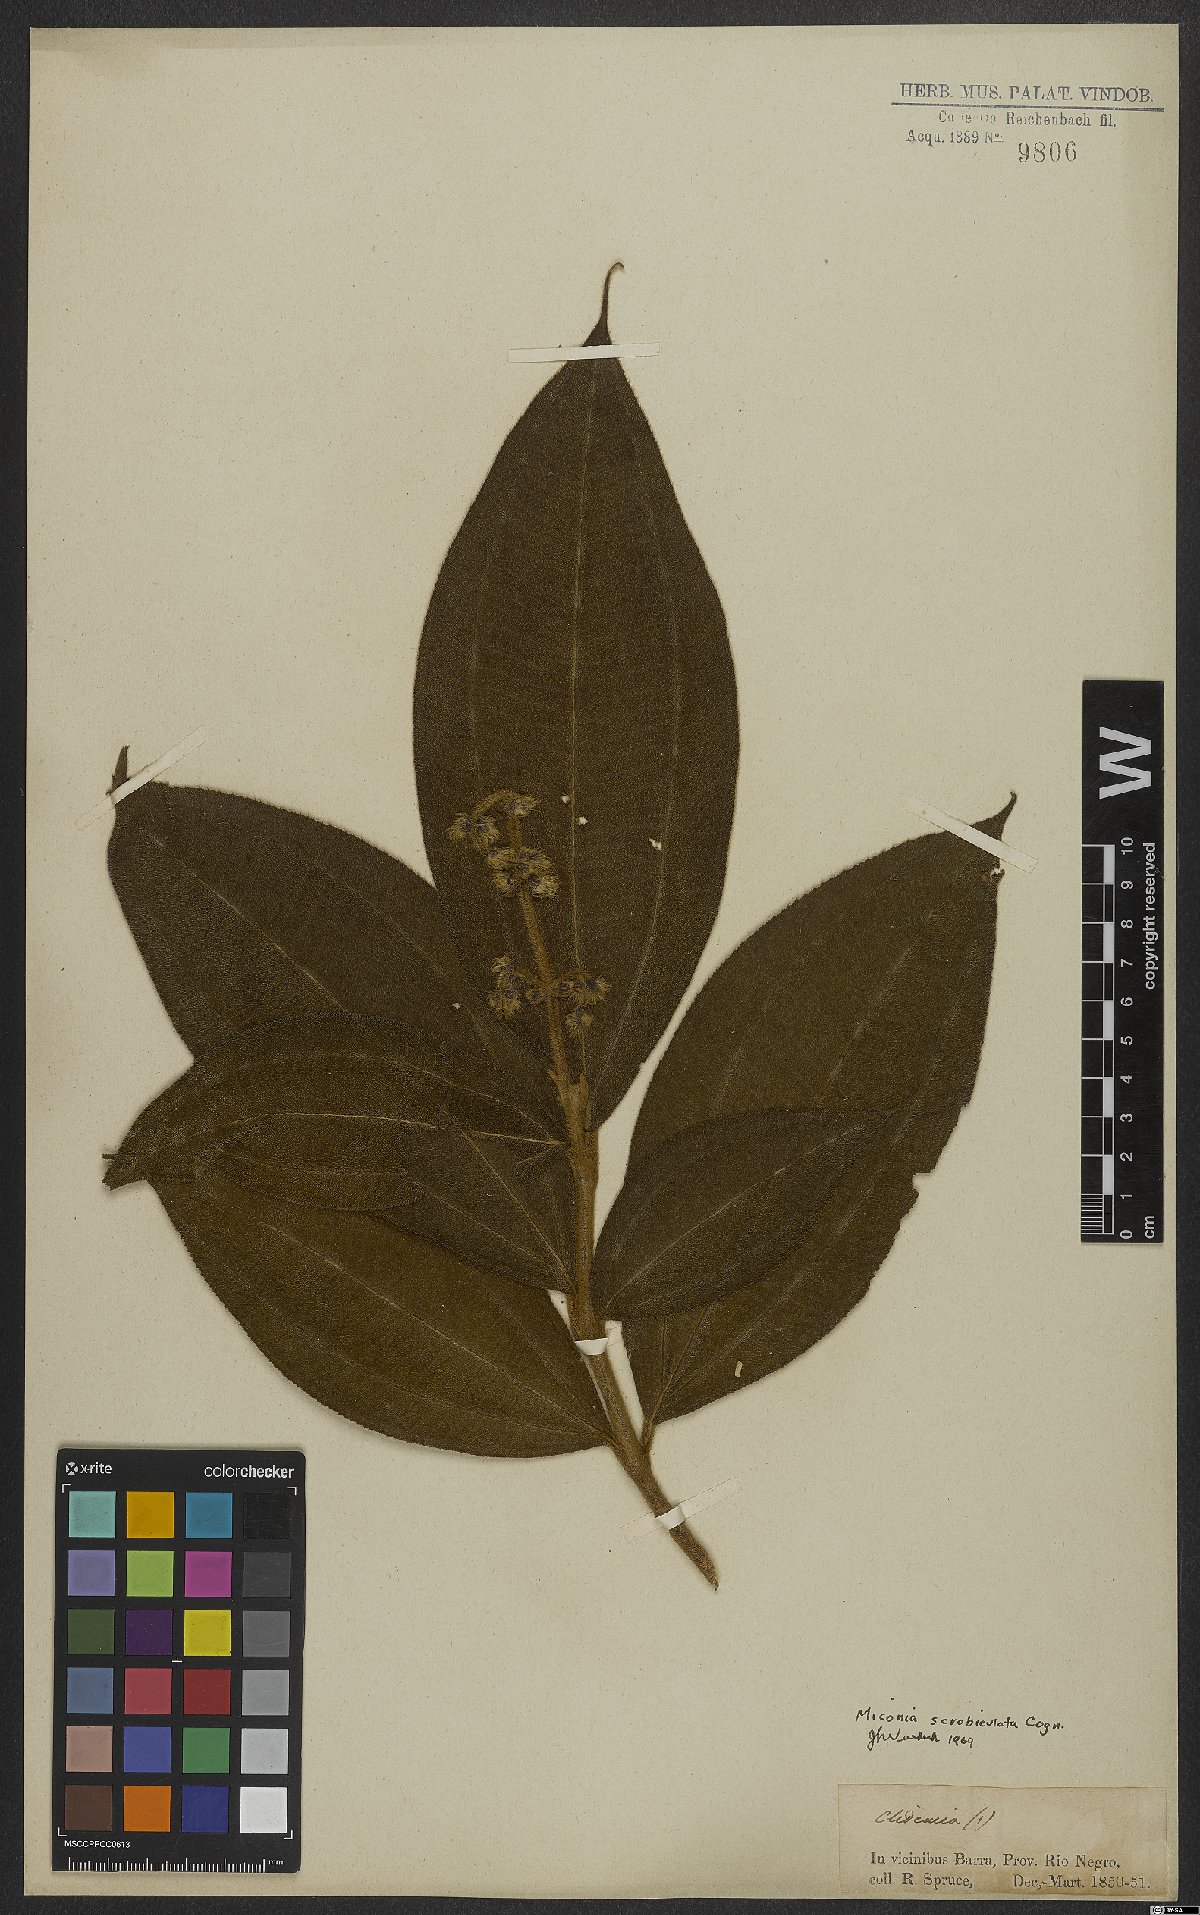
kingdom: Plantae
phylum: Tracheophyta
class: Magnoliopsida
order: Myrtales
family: Melastomataceae
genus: Miconia
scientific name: Miconia radulifolia
